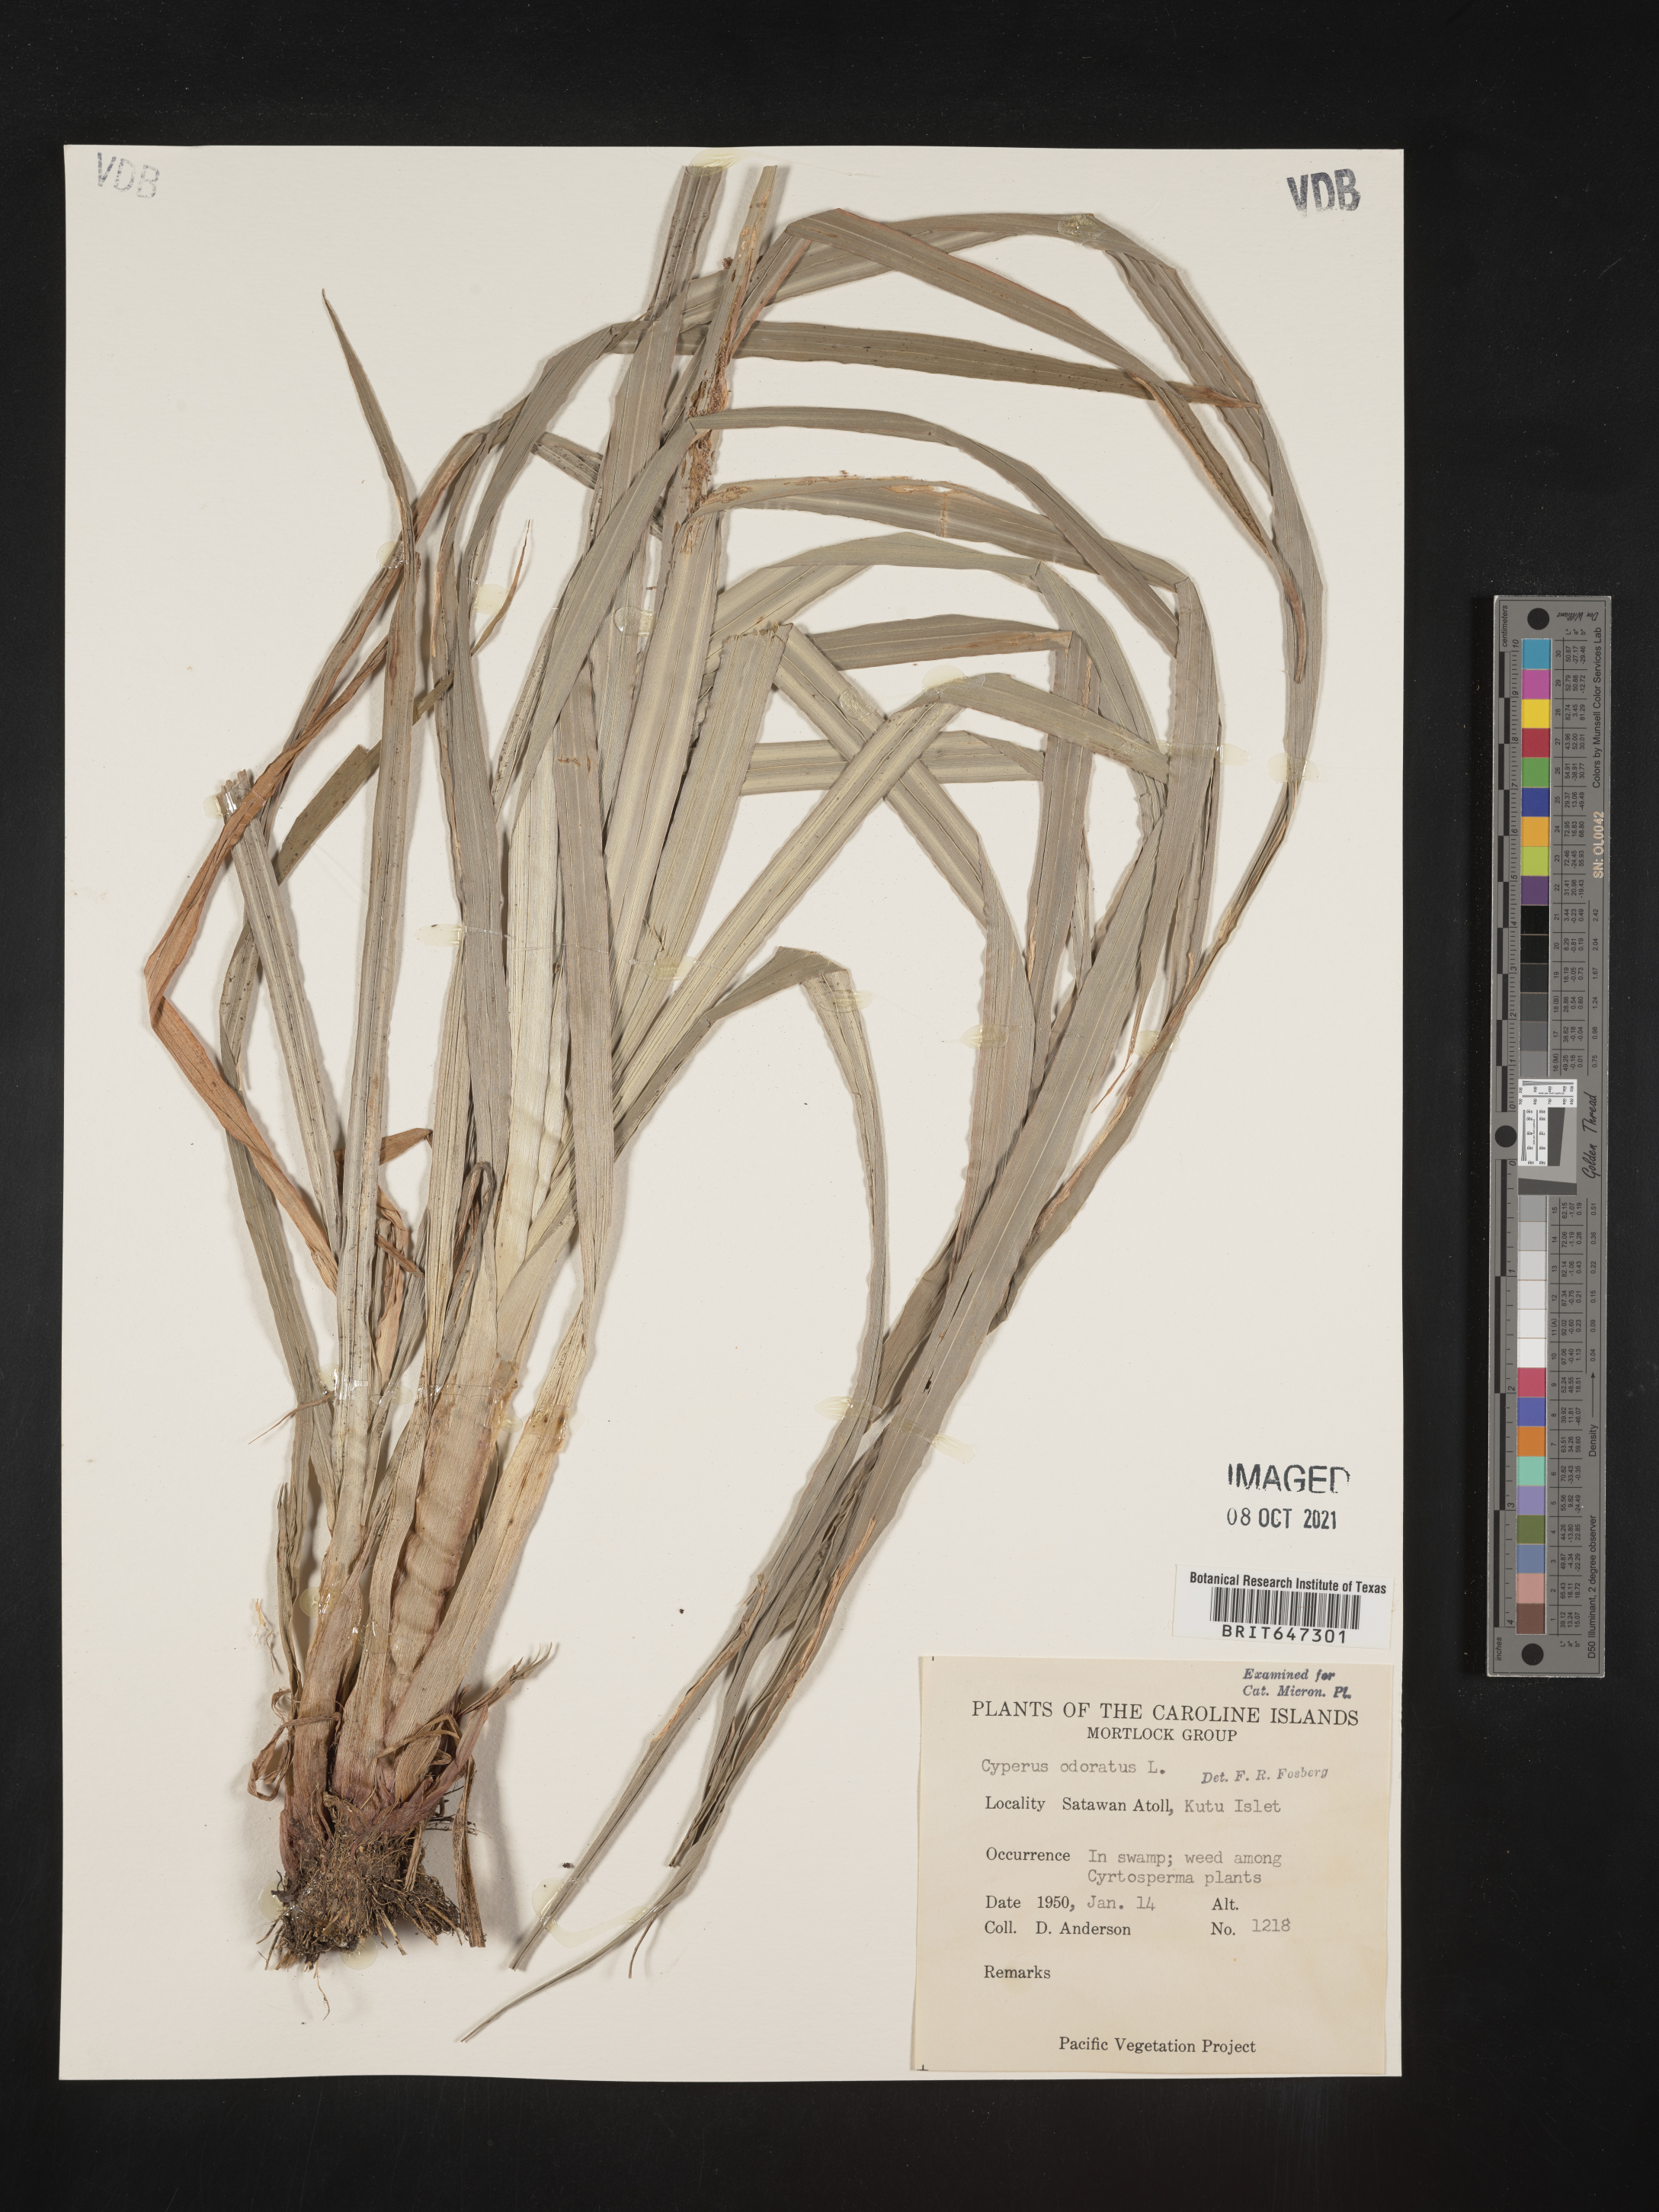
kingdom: Plantae
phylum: Tracheophyta
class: Liliopsida
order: Poales
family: Cyperaceae
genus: Cyperus
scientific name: Cyperus odoratus
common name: Fragrant flatsedge
